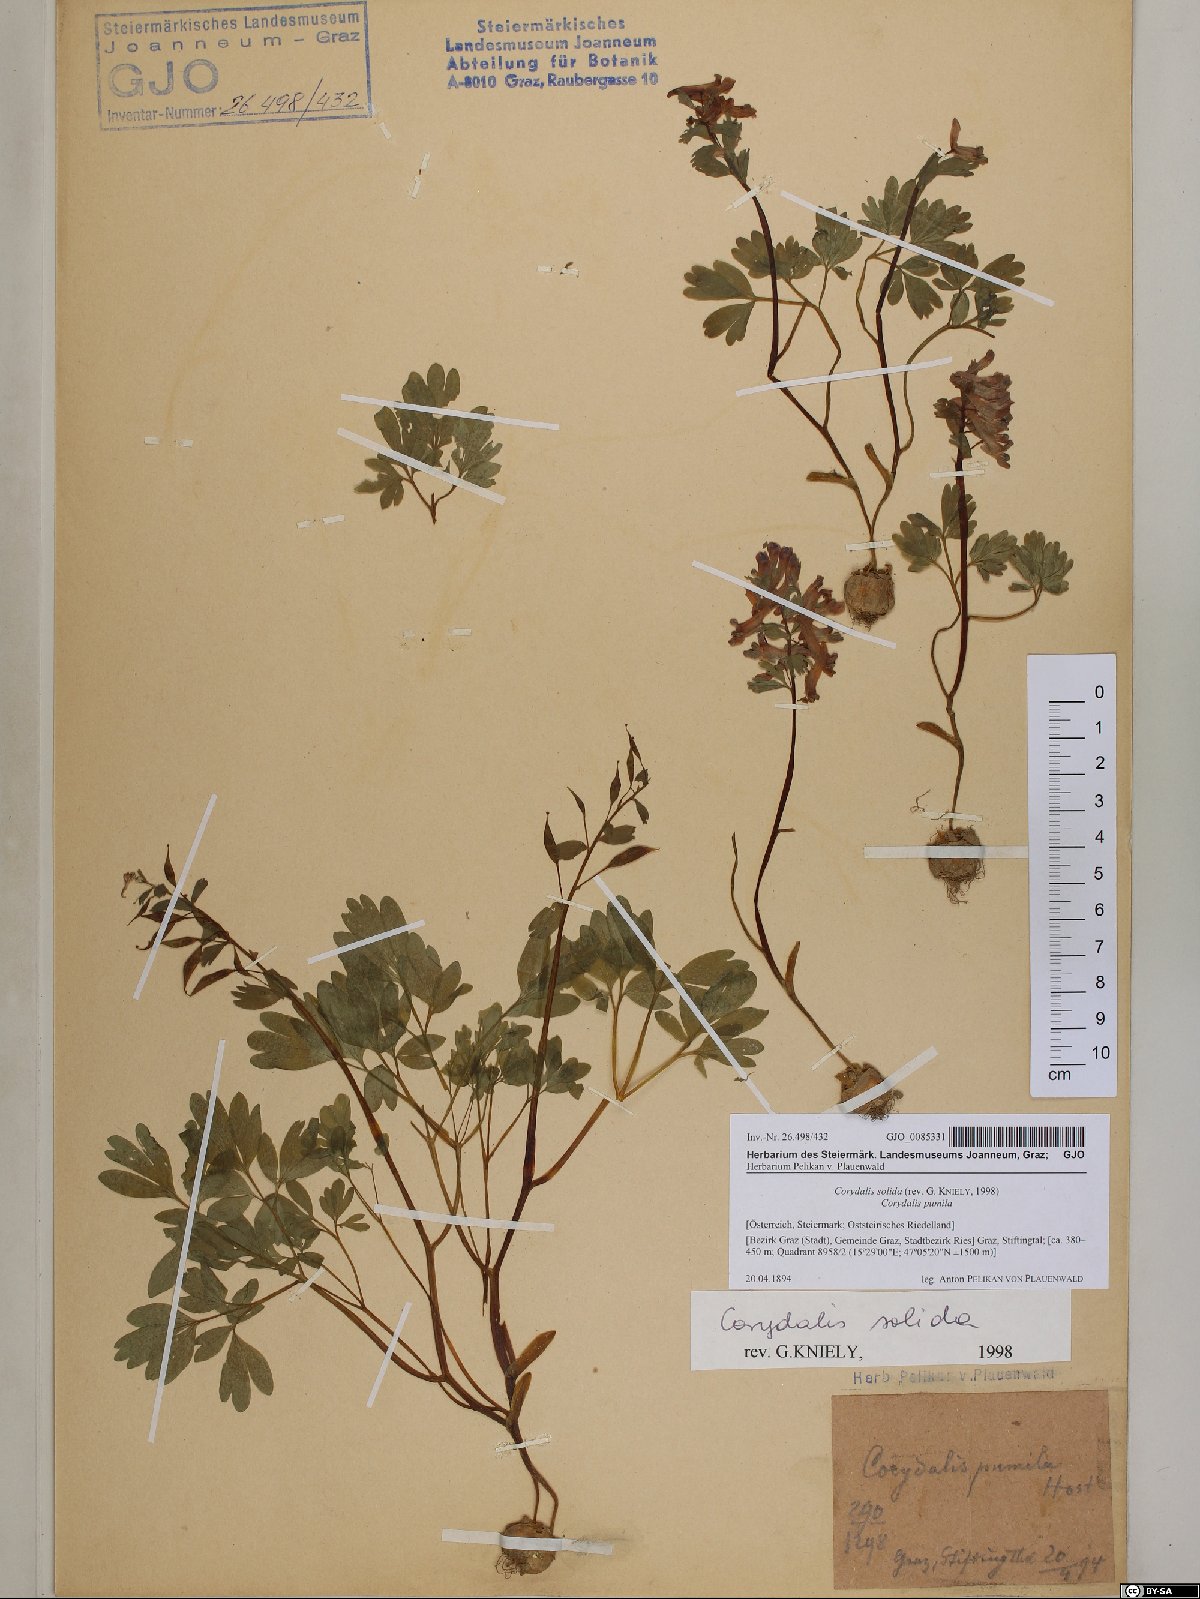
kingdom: Plantae
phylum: Tracheophyta
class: Magnoliopsida
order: Ranunculales
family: Papaveraceae
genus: Corydalis
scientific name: Corydalis solida
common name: Bird-in-a-bush
